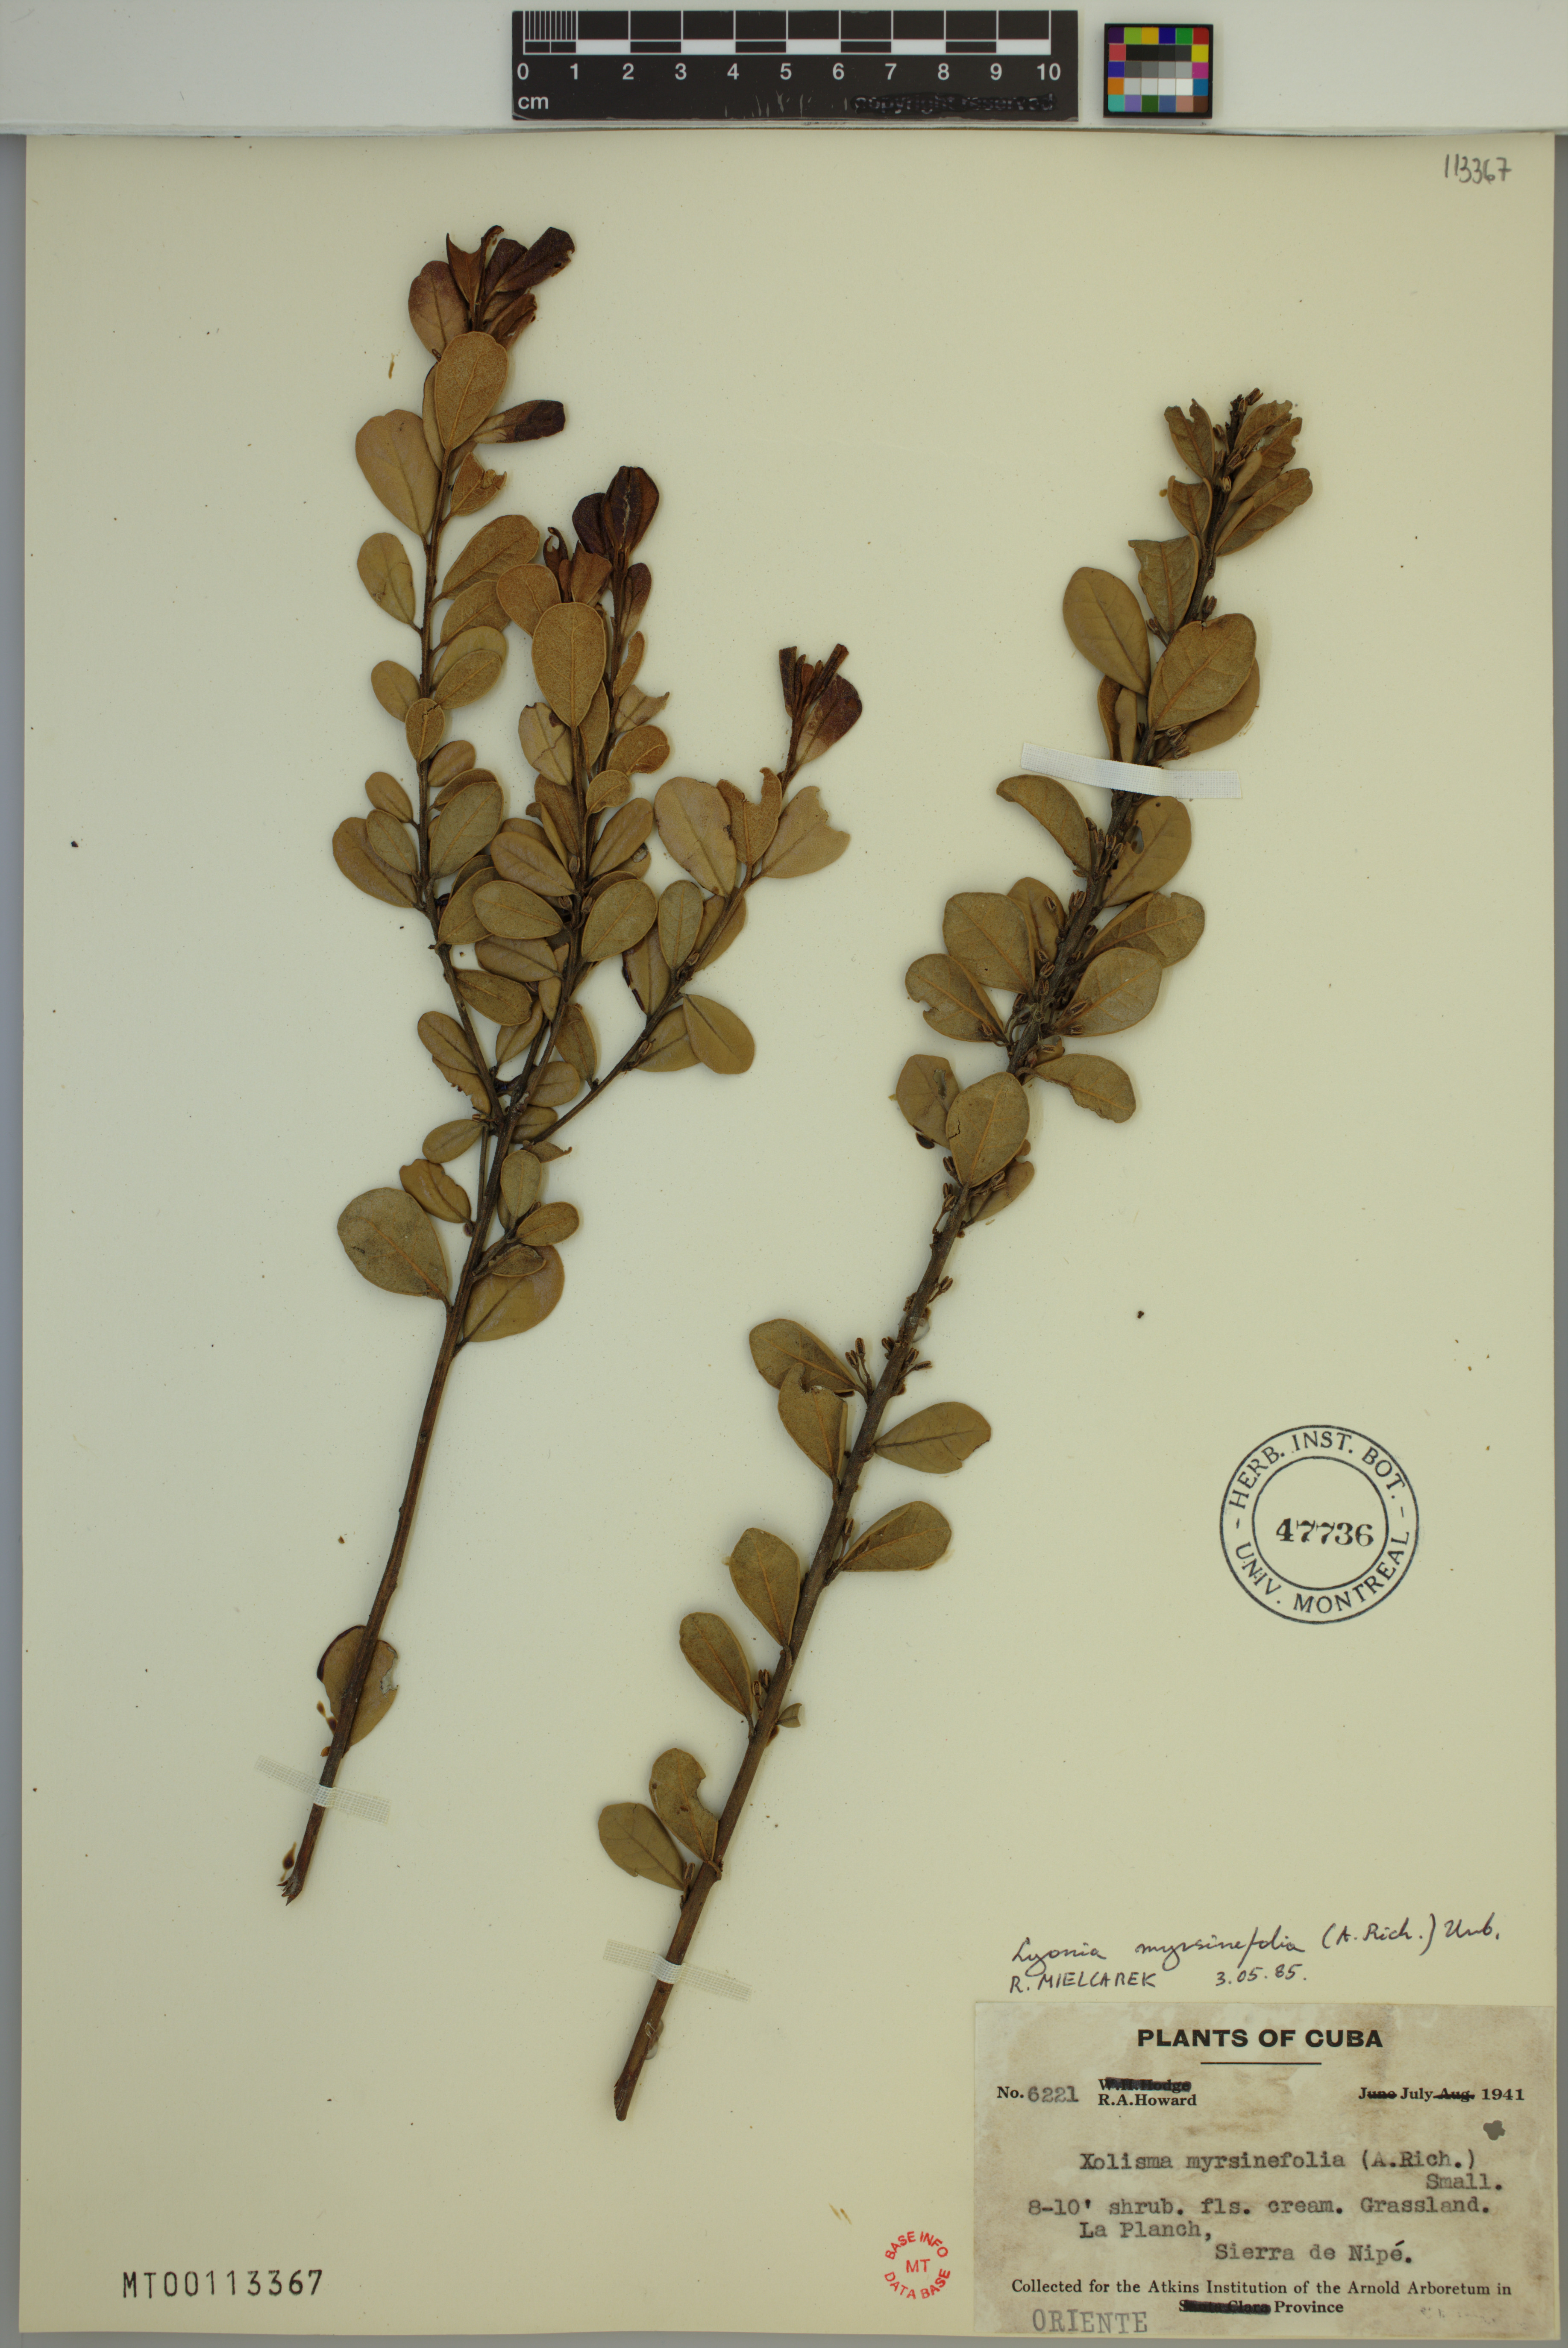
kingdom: Plantae
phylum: Tracheophyta
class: Magnoliopsida
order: Ericales
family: Ericaceae
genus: Lyonia
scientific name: Lyonia affinis
